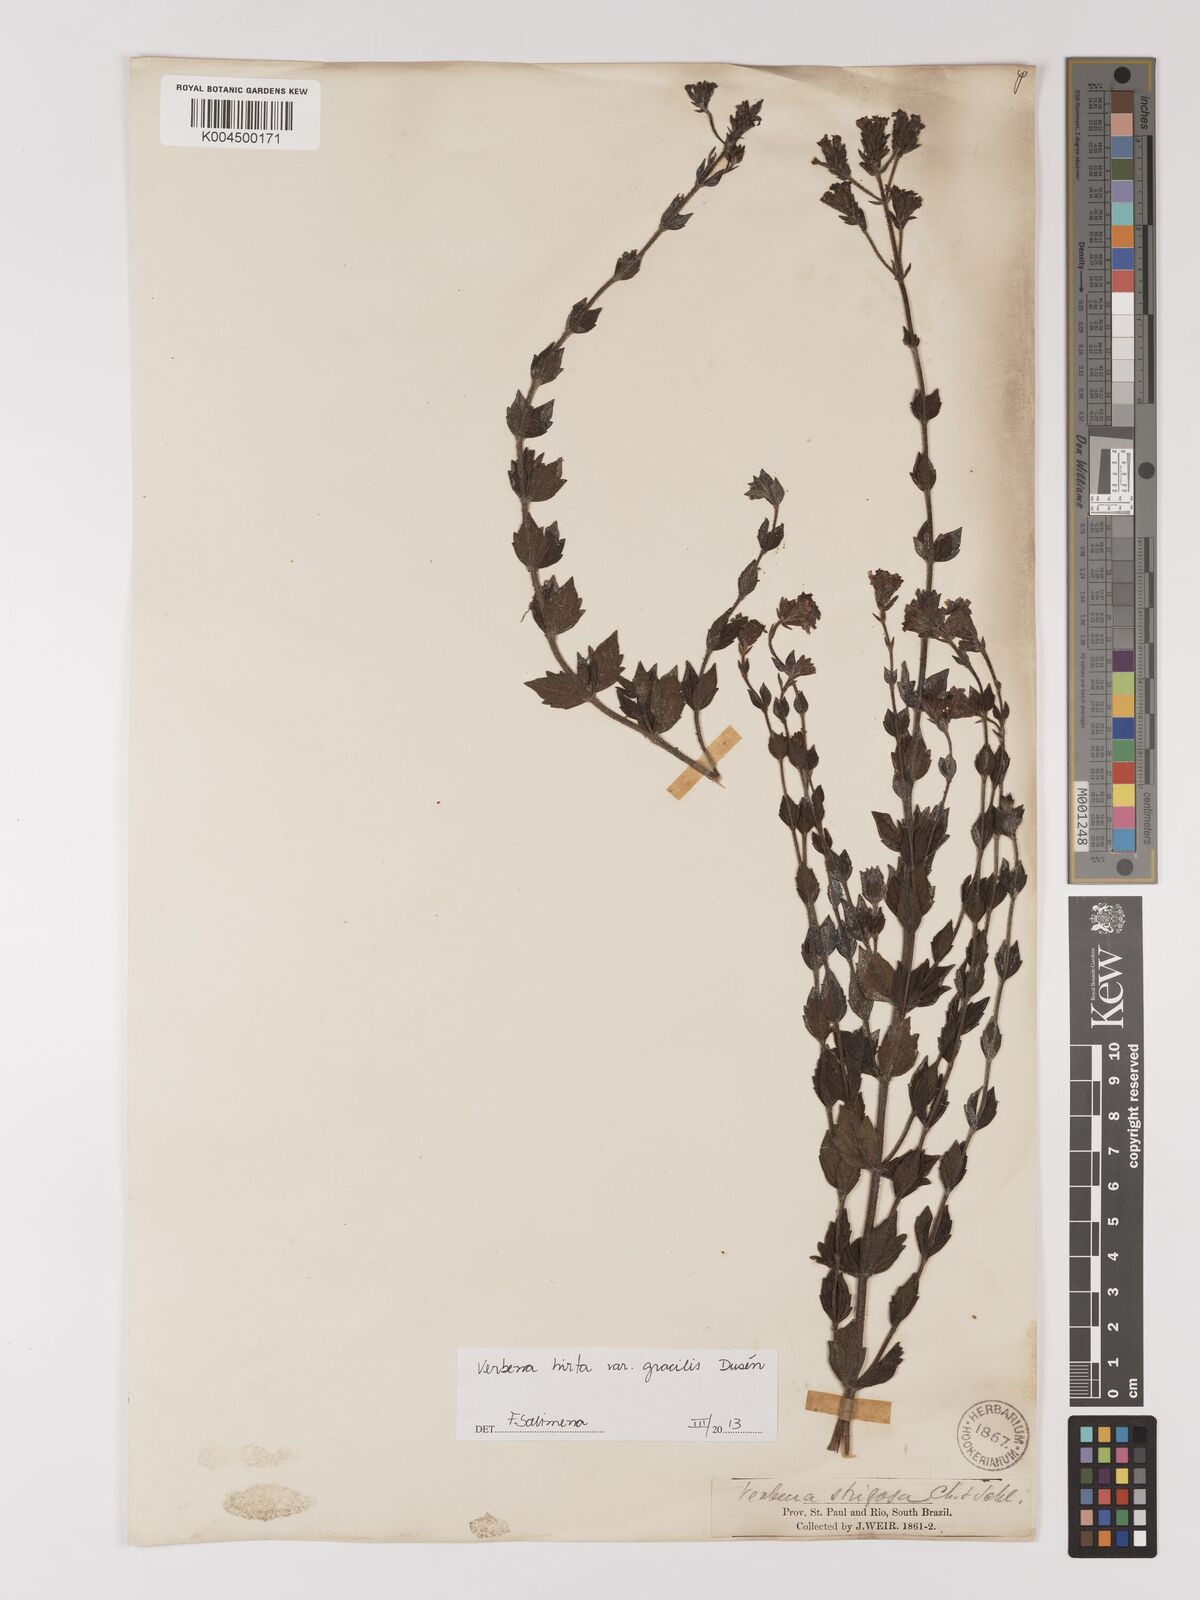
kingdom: Plantae
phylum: Tracheophyta
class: Magnoliopsida
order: Lamiales
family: Verbenaceae
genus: Verbena
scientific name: Verbena hirta
